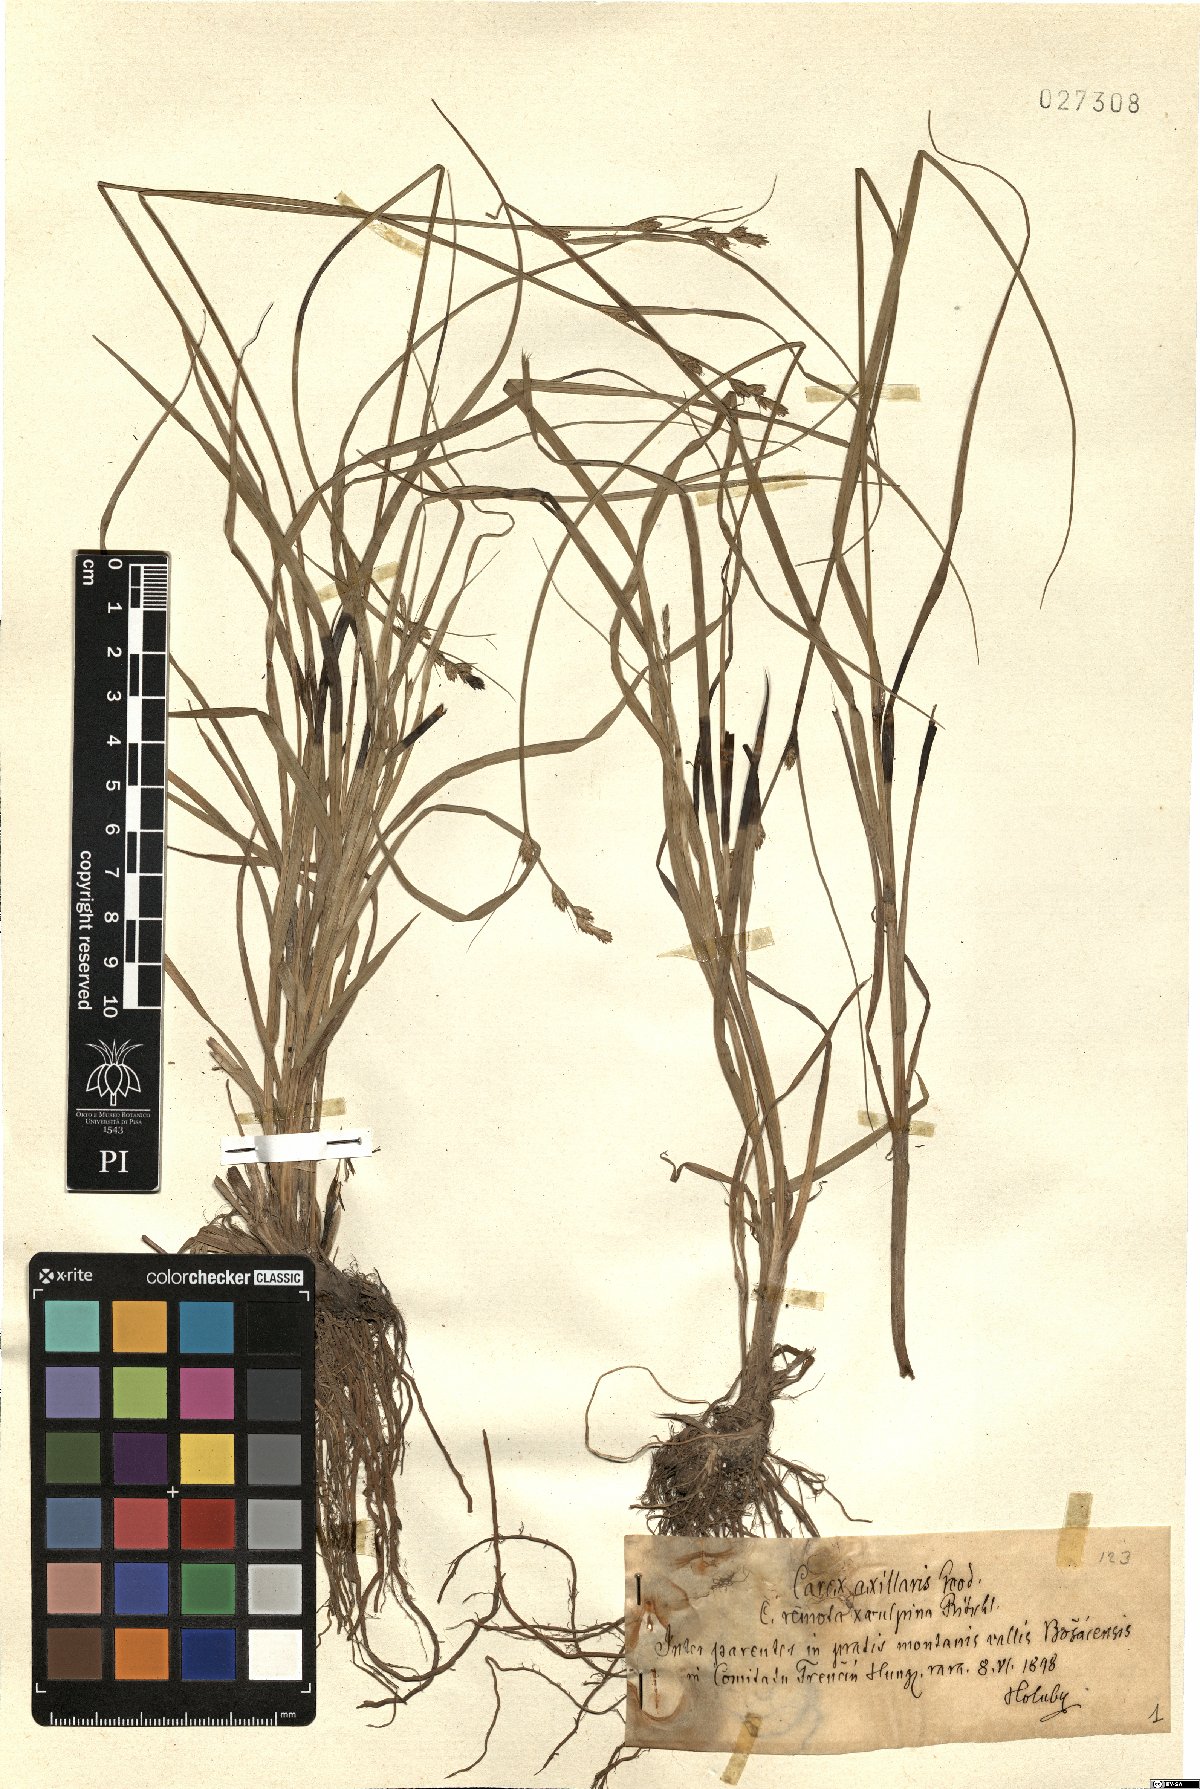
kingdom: Plantae
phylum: Tracheophyta
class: Liliopsida
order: Poales
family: Cyperaceae
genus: Carex
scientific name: Carex remota
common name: Remote sedge
